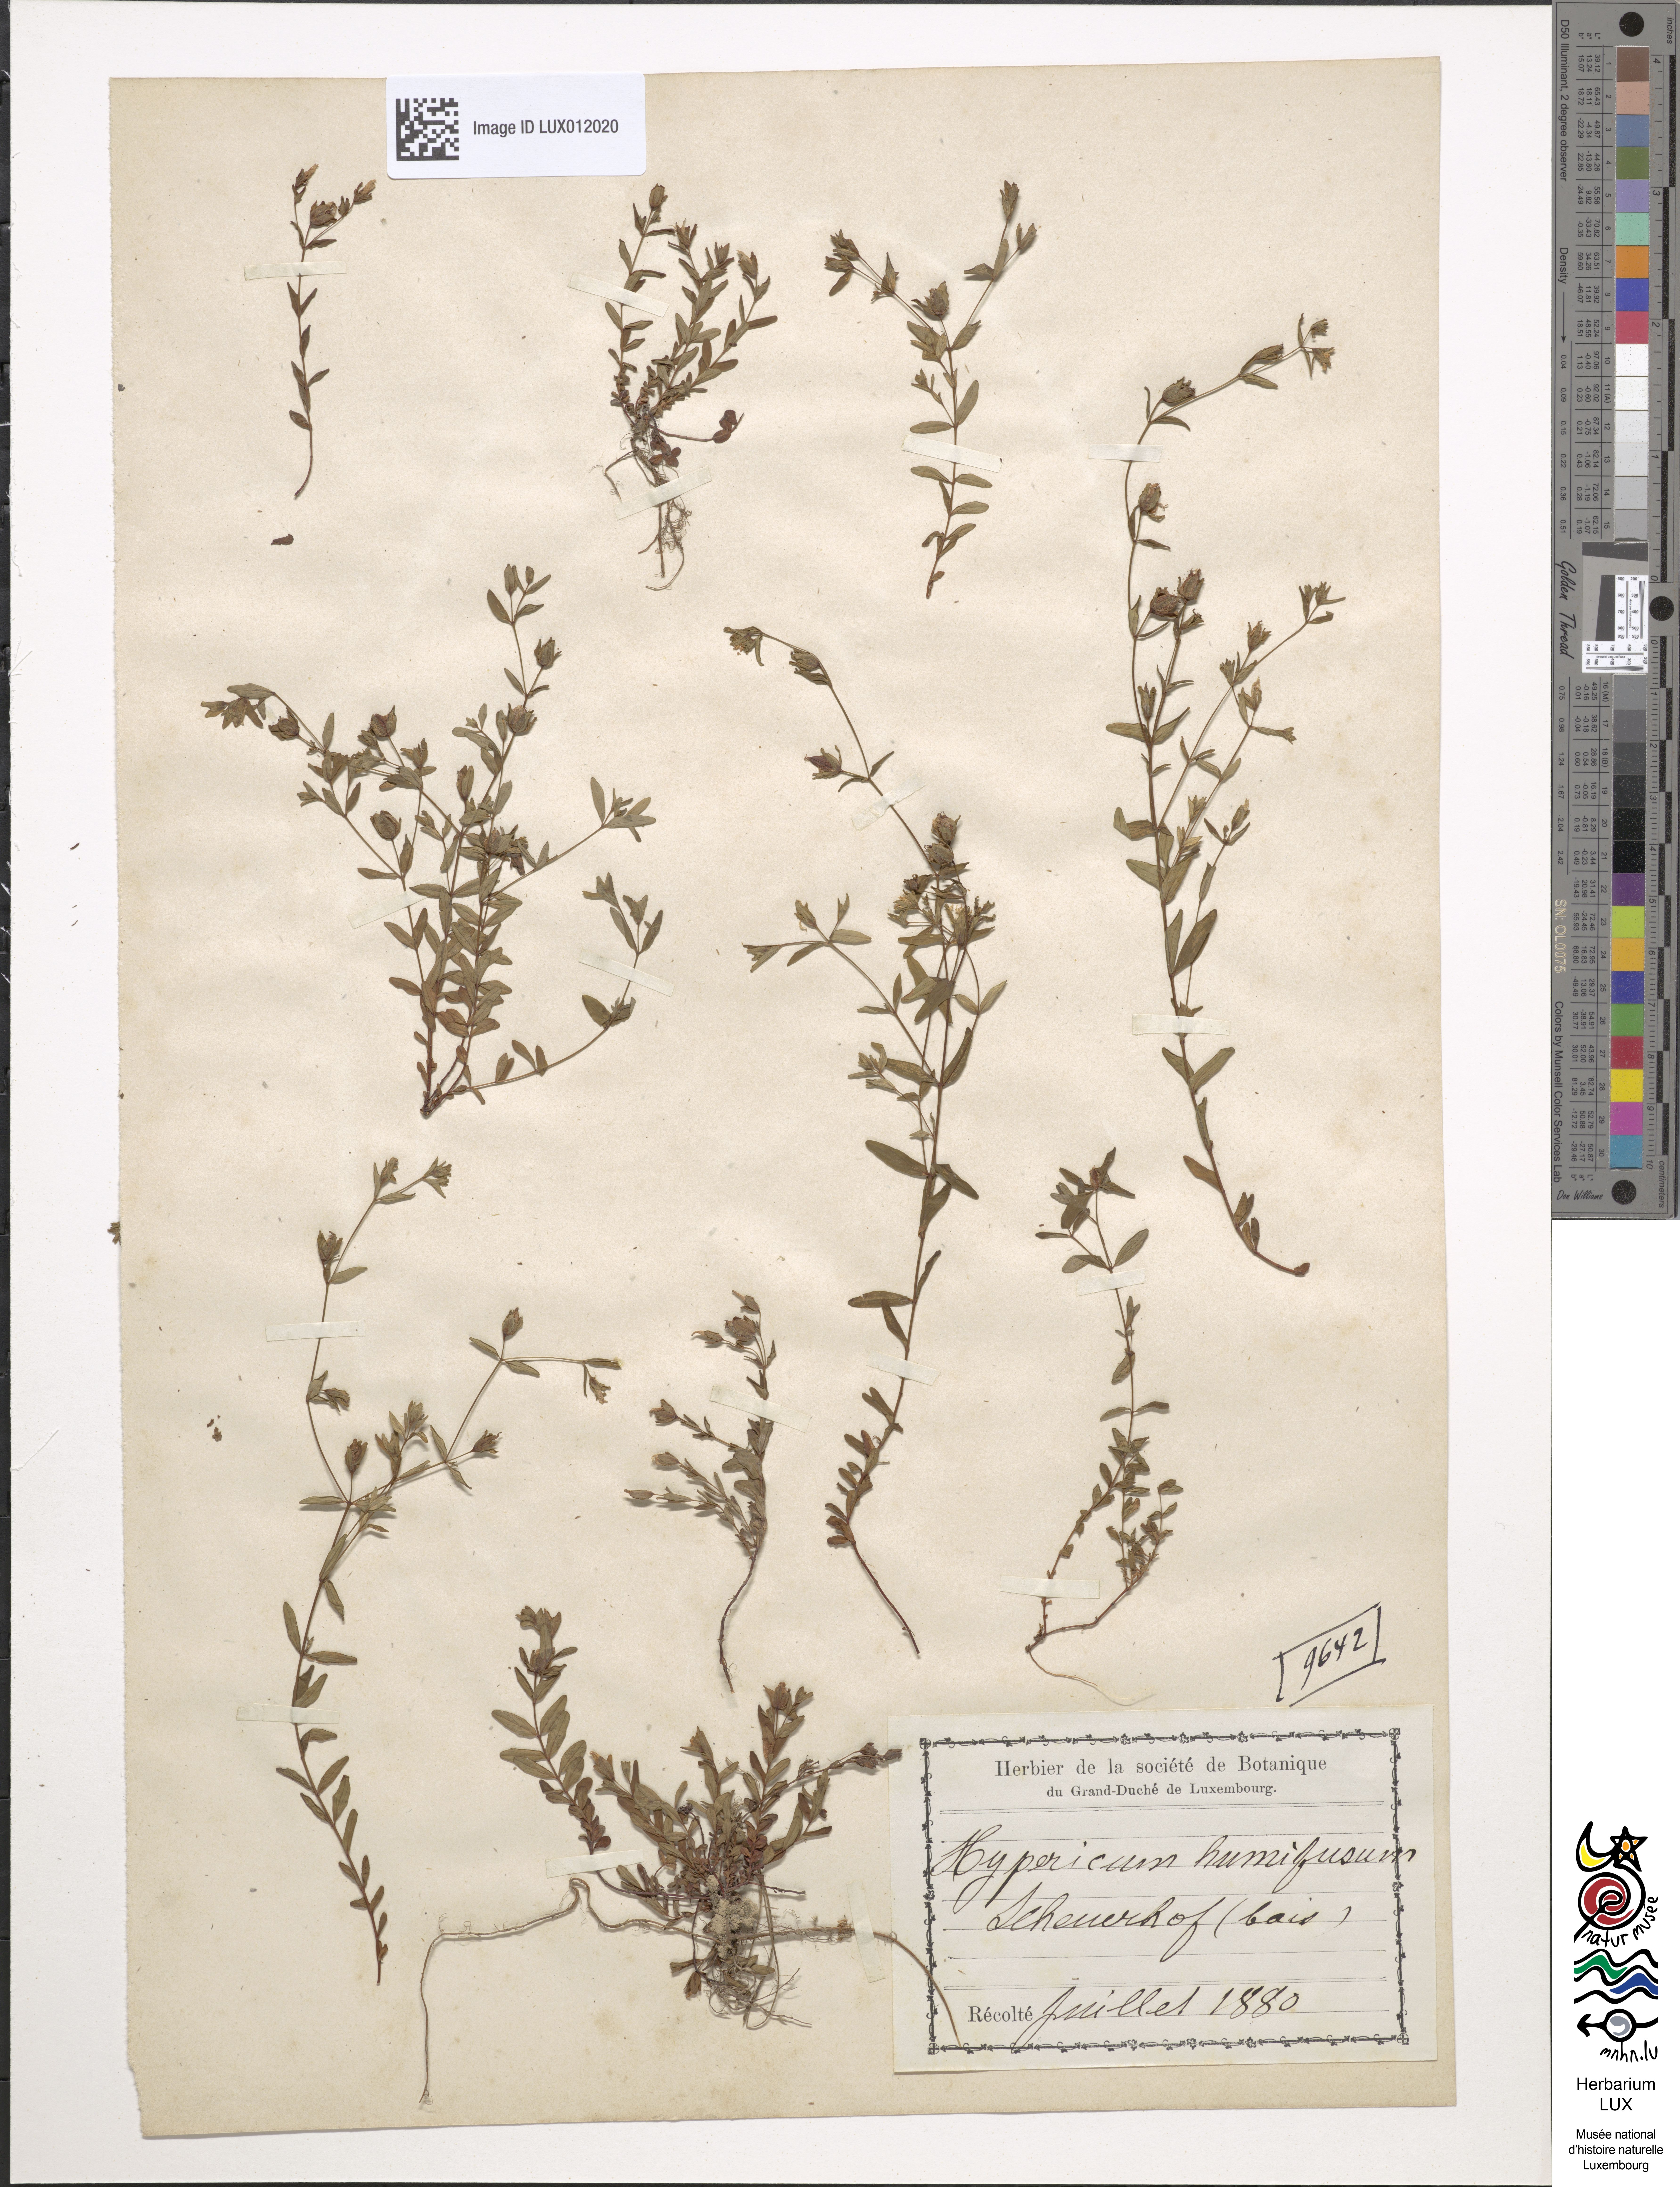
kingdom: Plantae
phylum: Tracheophyta
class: Magnoliopsida
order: Malpighiales
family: Hypericaceae
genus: Hypericum
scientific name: Hypericum humifusum
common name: Trailing st. john's-wort
